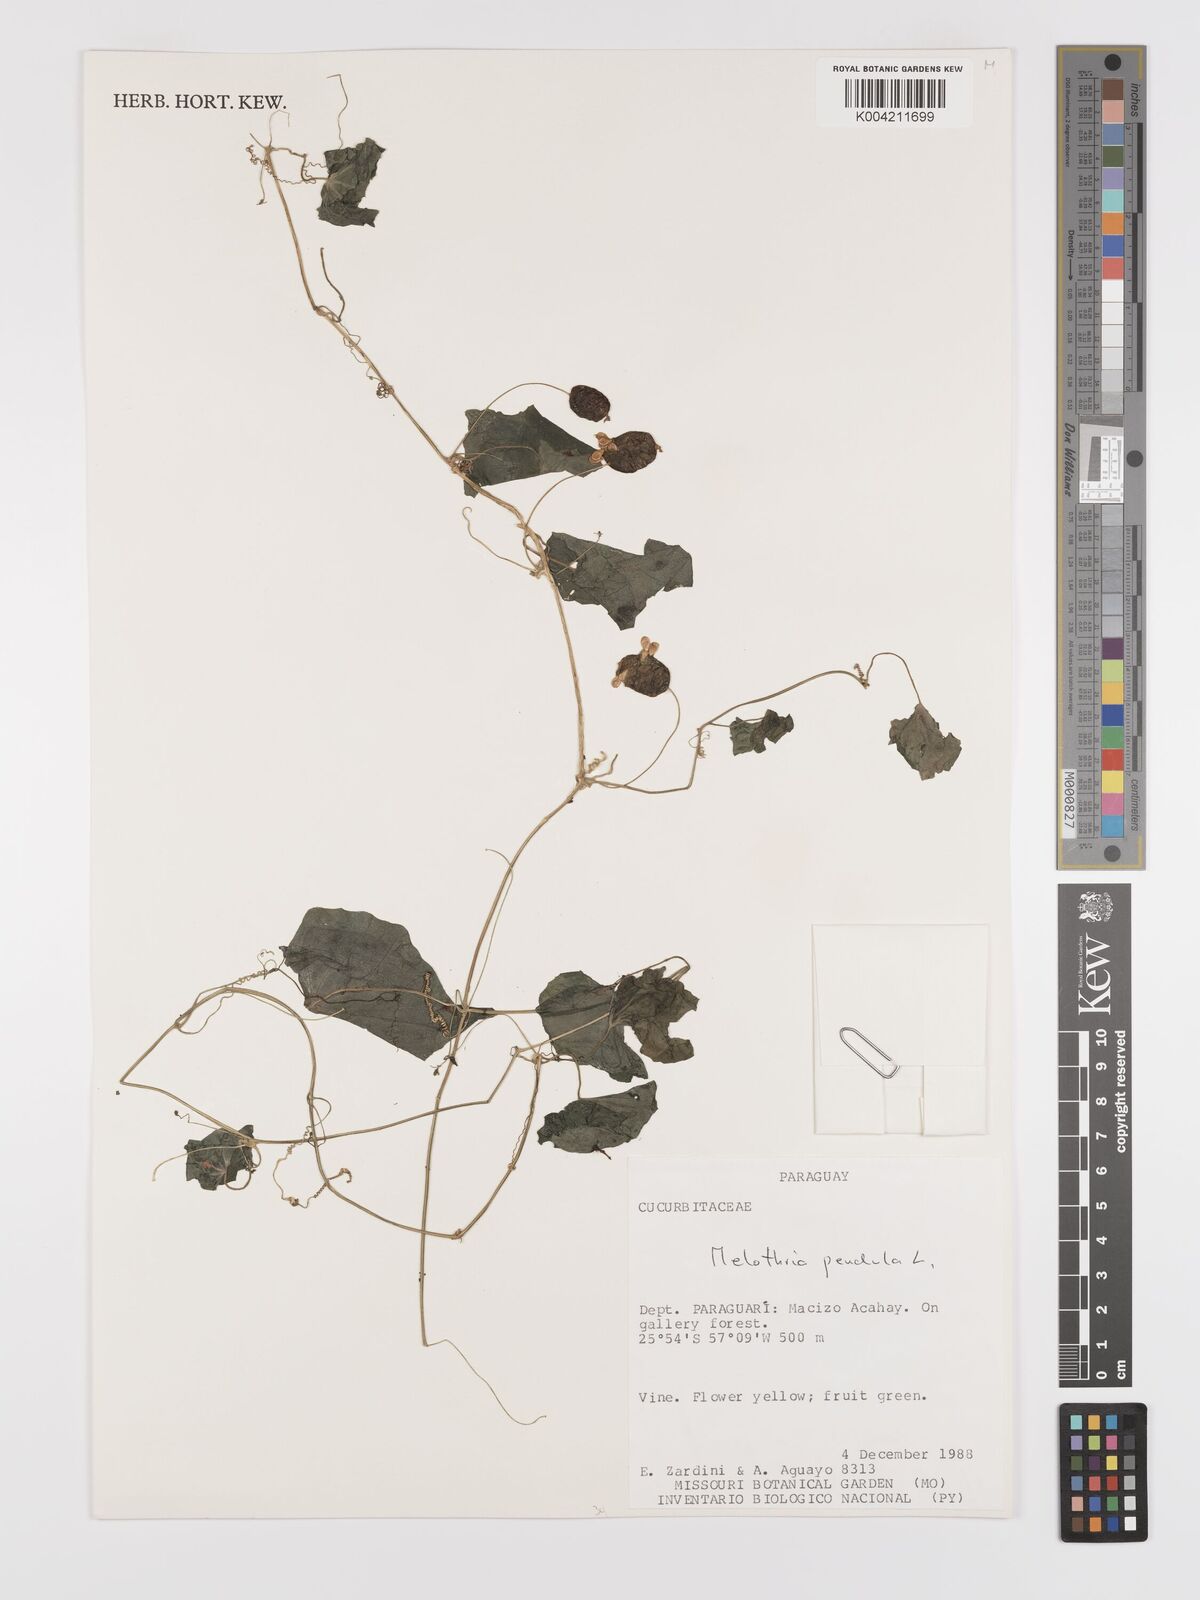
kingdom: Plantae
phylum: Tracheophyta
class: Magnoliopsida
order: Cucurbitales
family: Cucurbitaceae
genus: Melothria
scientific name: Melothria
